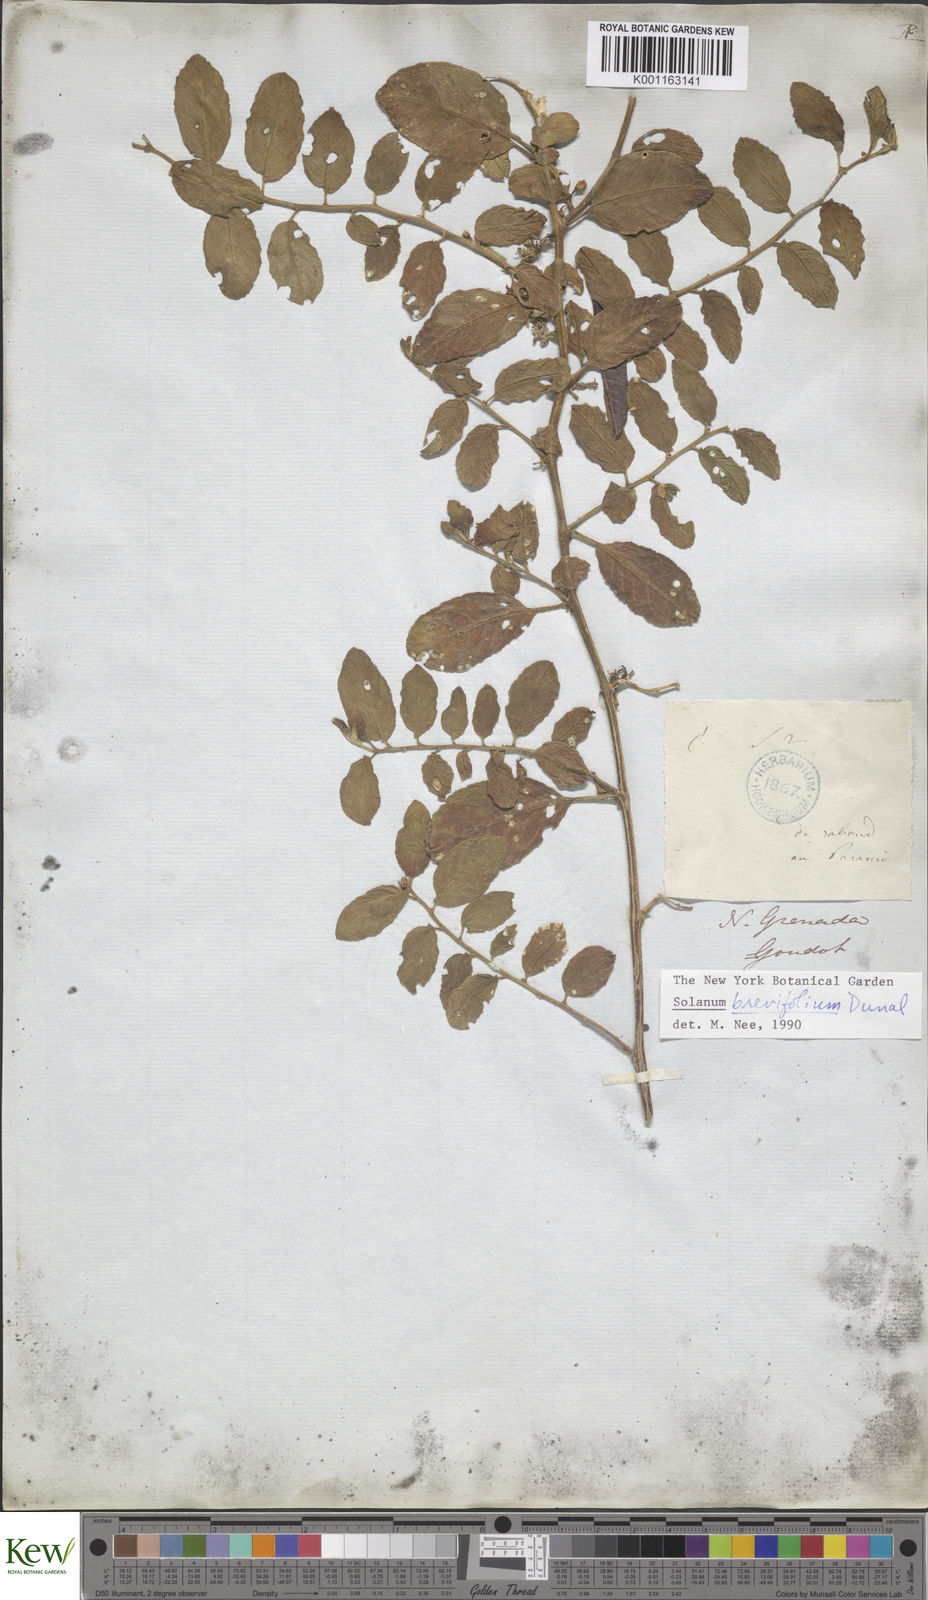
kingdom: Plantae
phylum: Tracheophyta
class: Magnoliopsida
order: Solanales
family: Solanaceae
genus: Solanum
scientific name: Solanum
